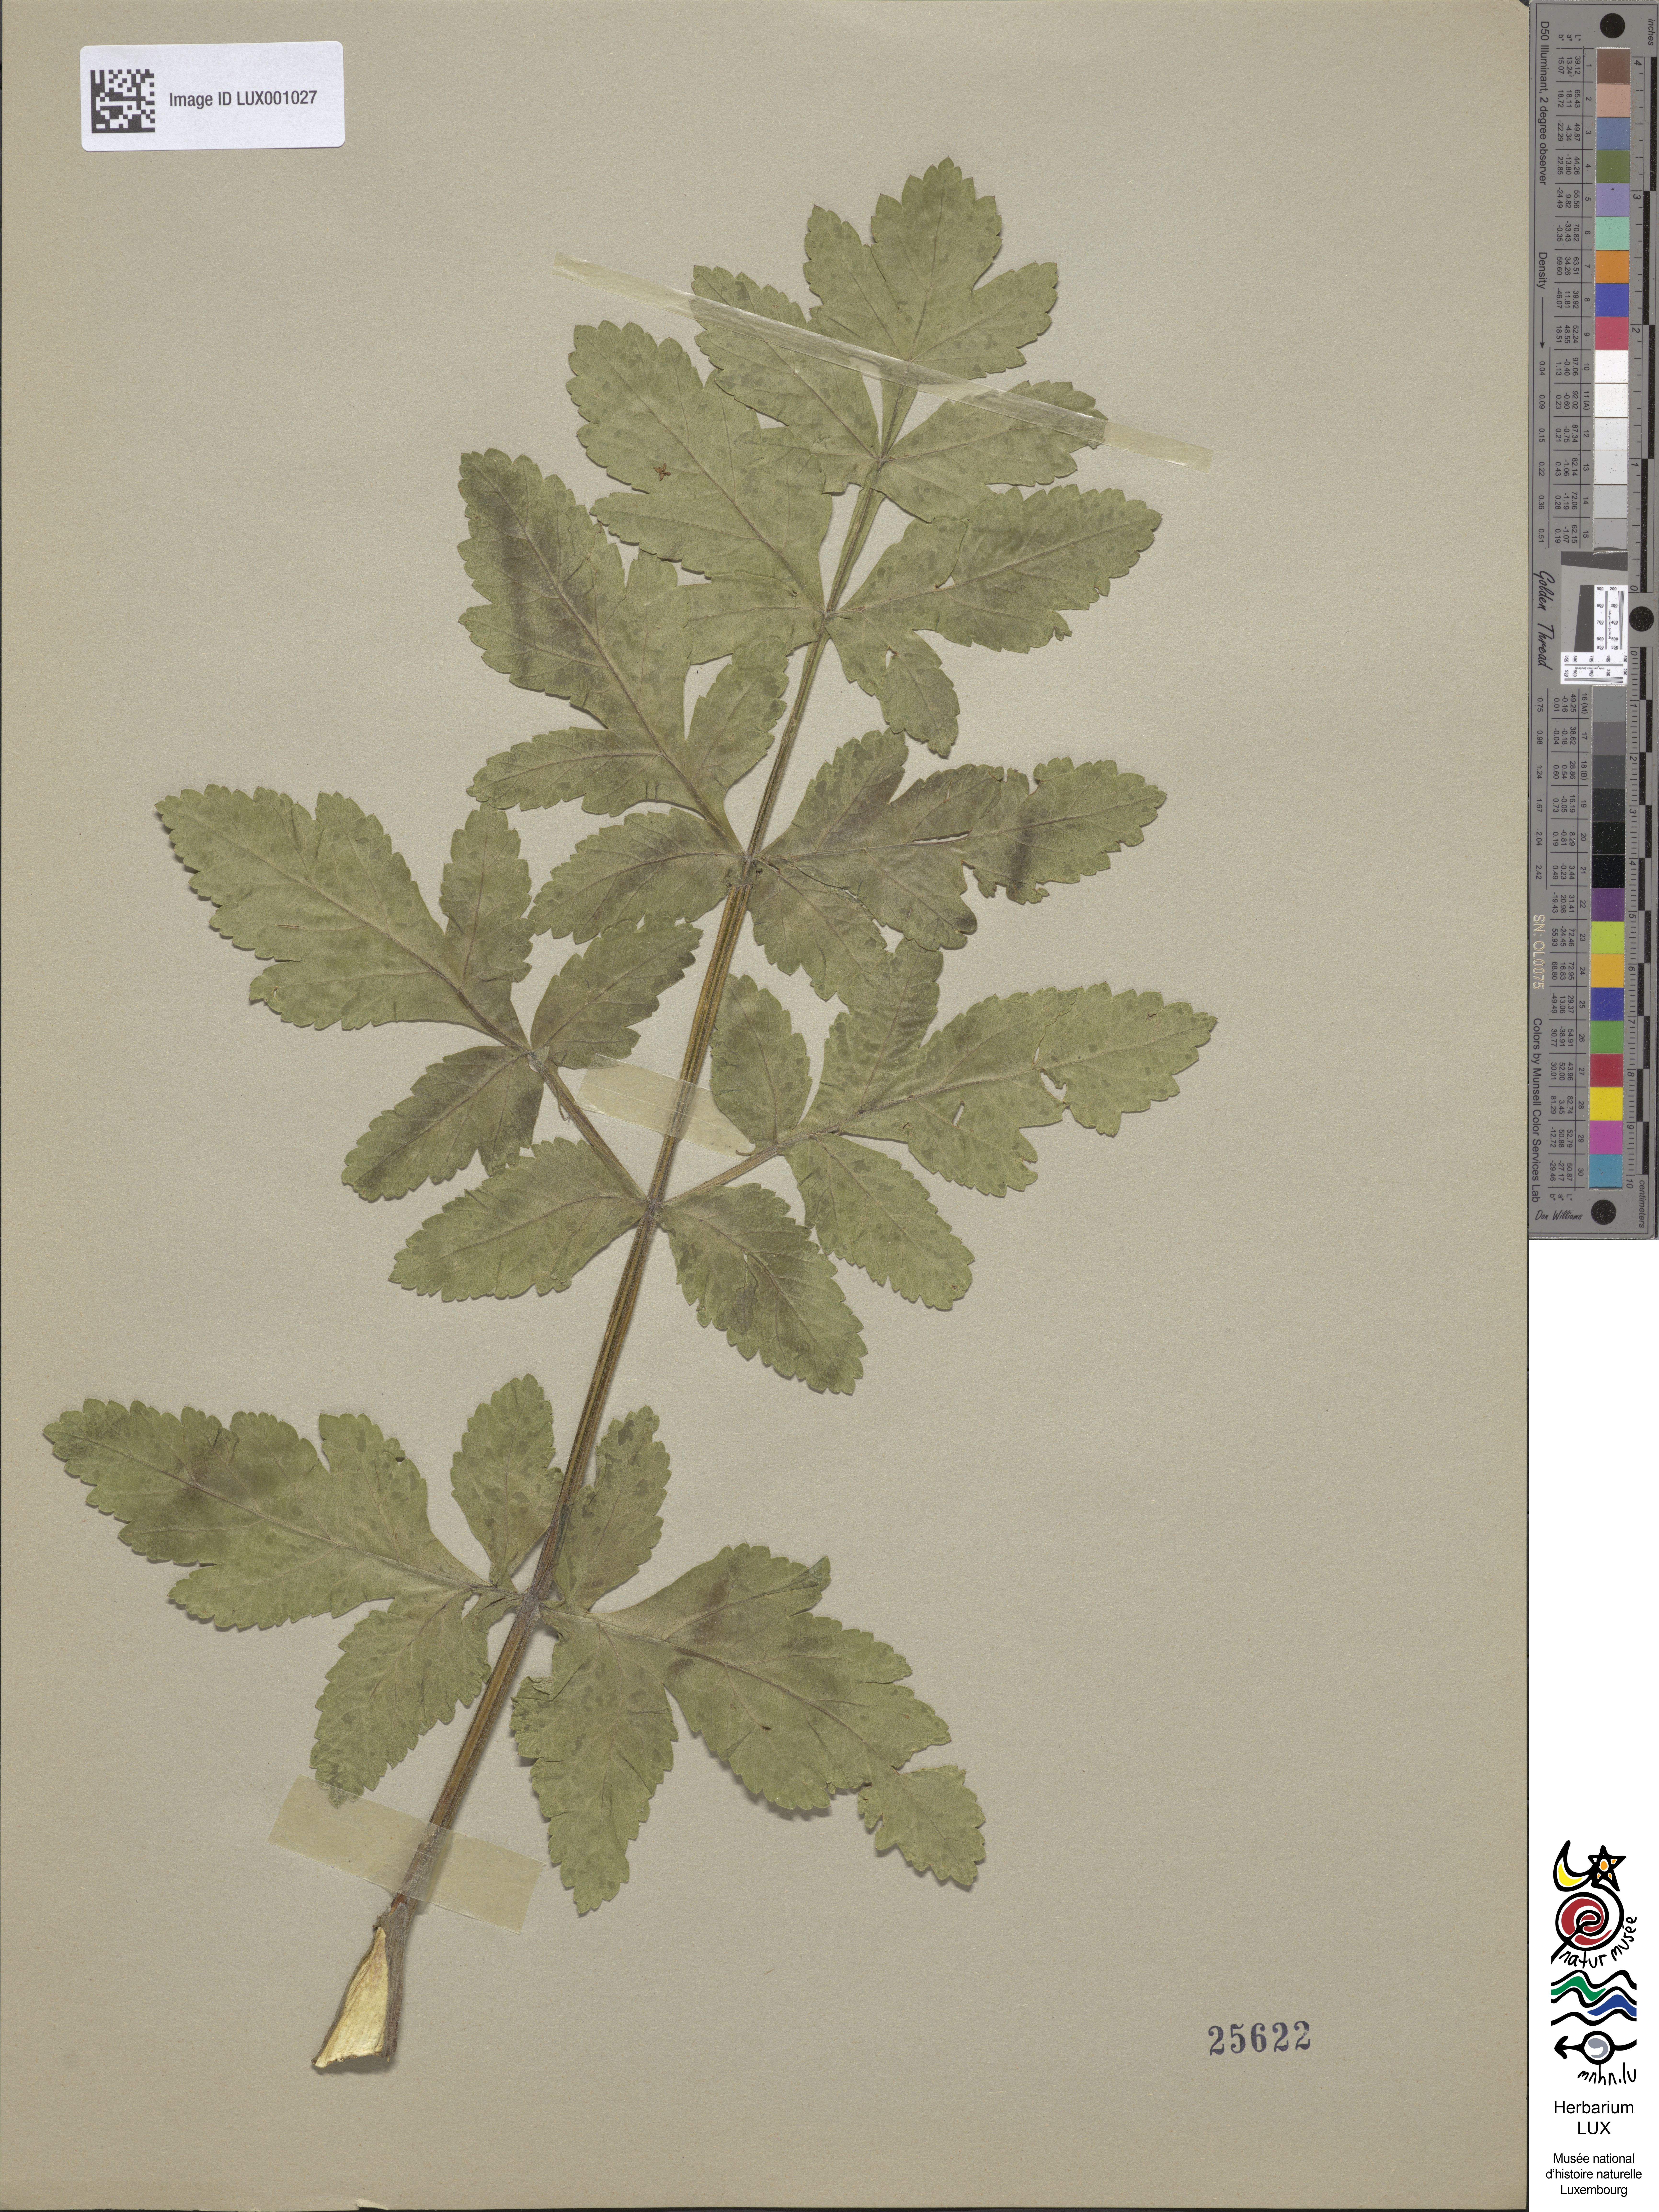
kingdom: Plantae
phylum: Tracheophyta
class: Magnoliopsida
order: Apiales
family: Apiaceae
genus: Pastinaca
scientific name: Pastinaca sativa
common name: Wild parsnip
